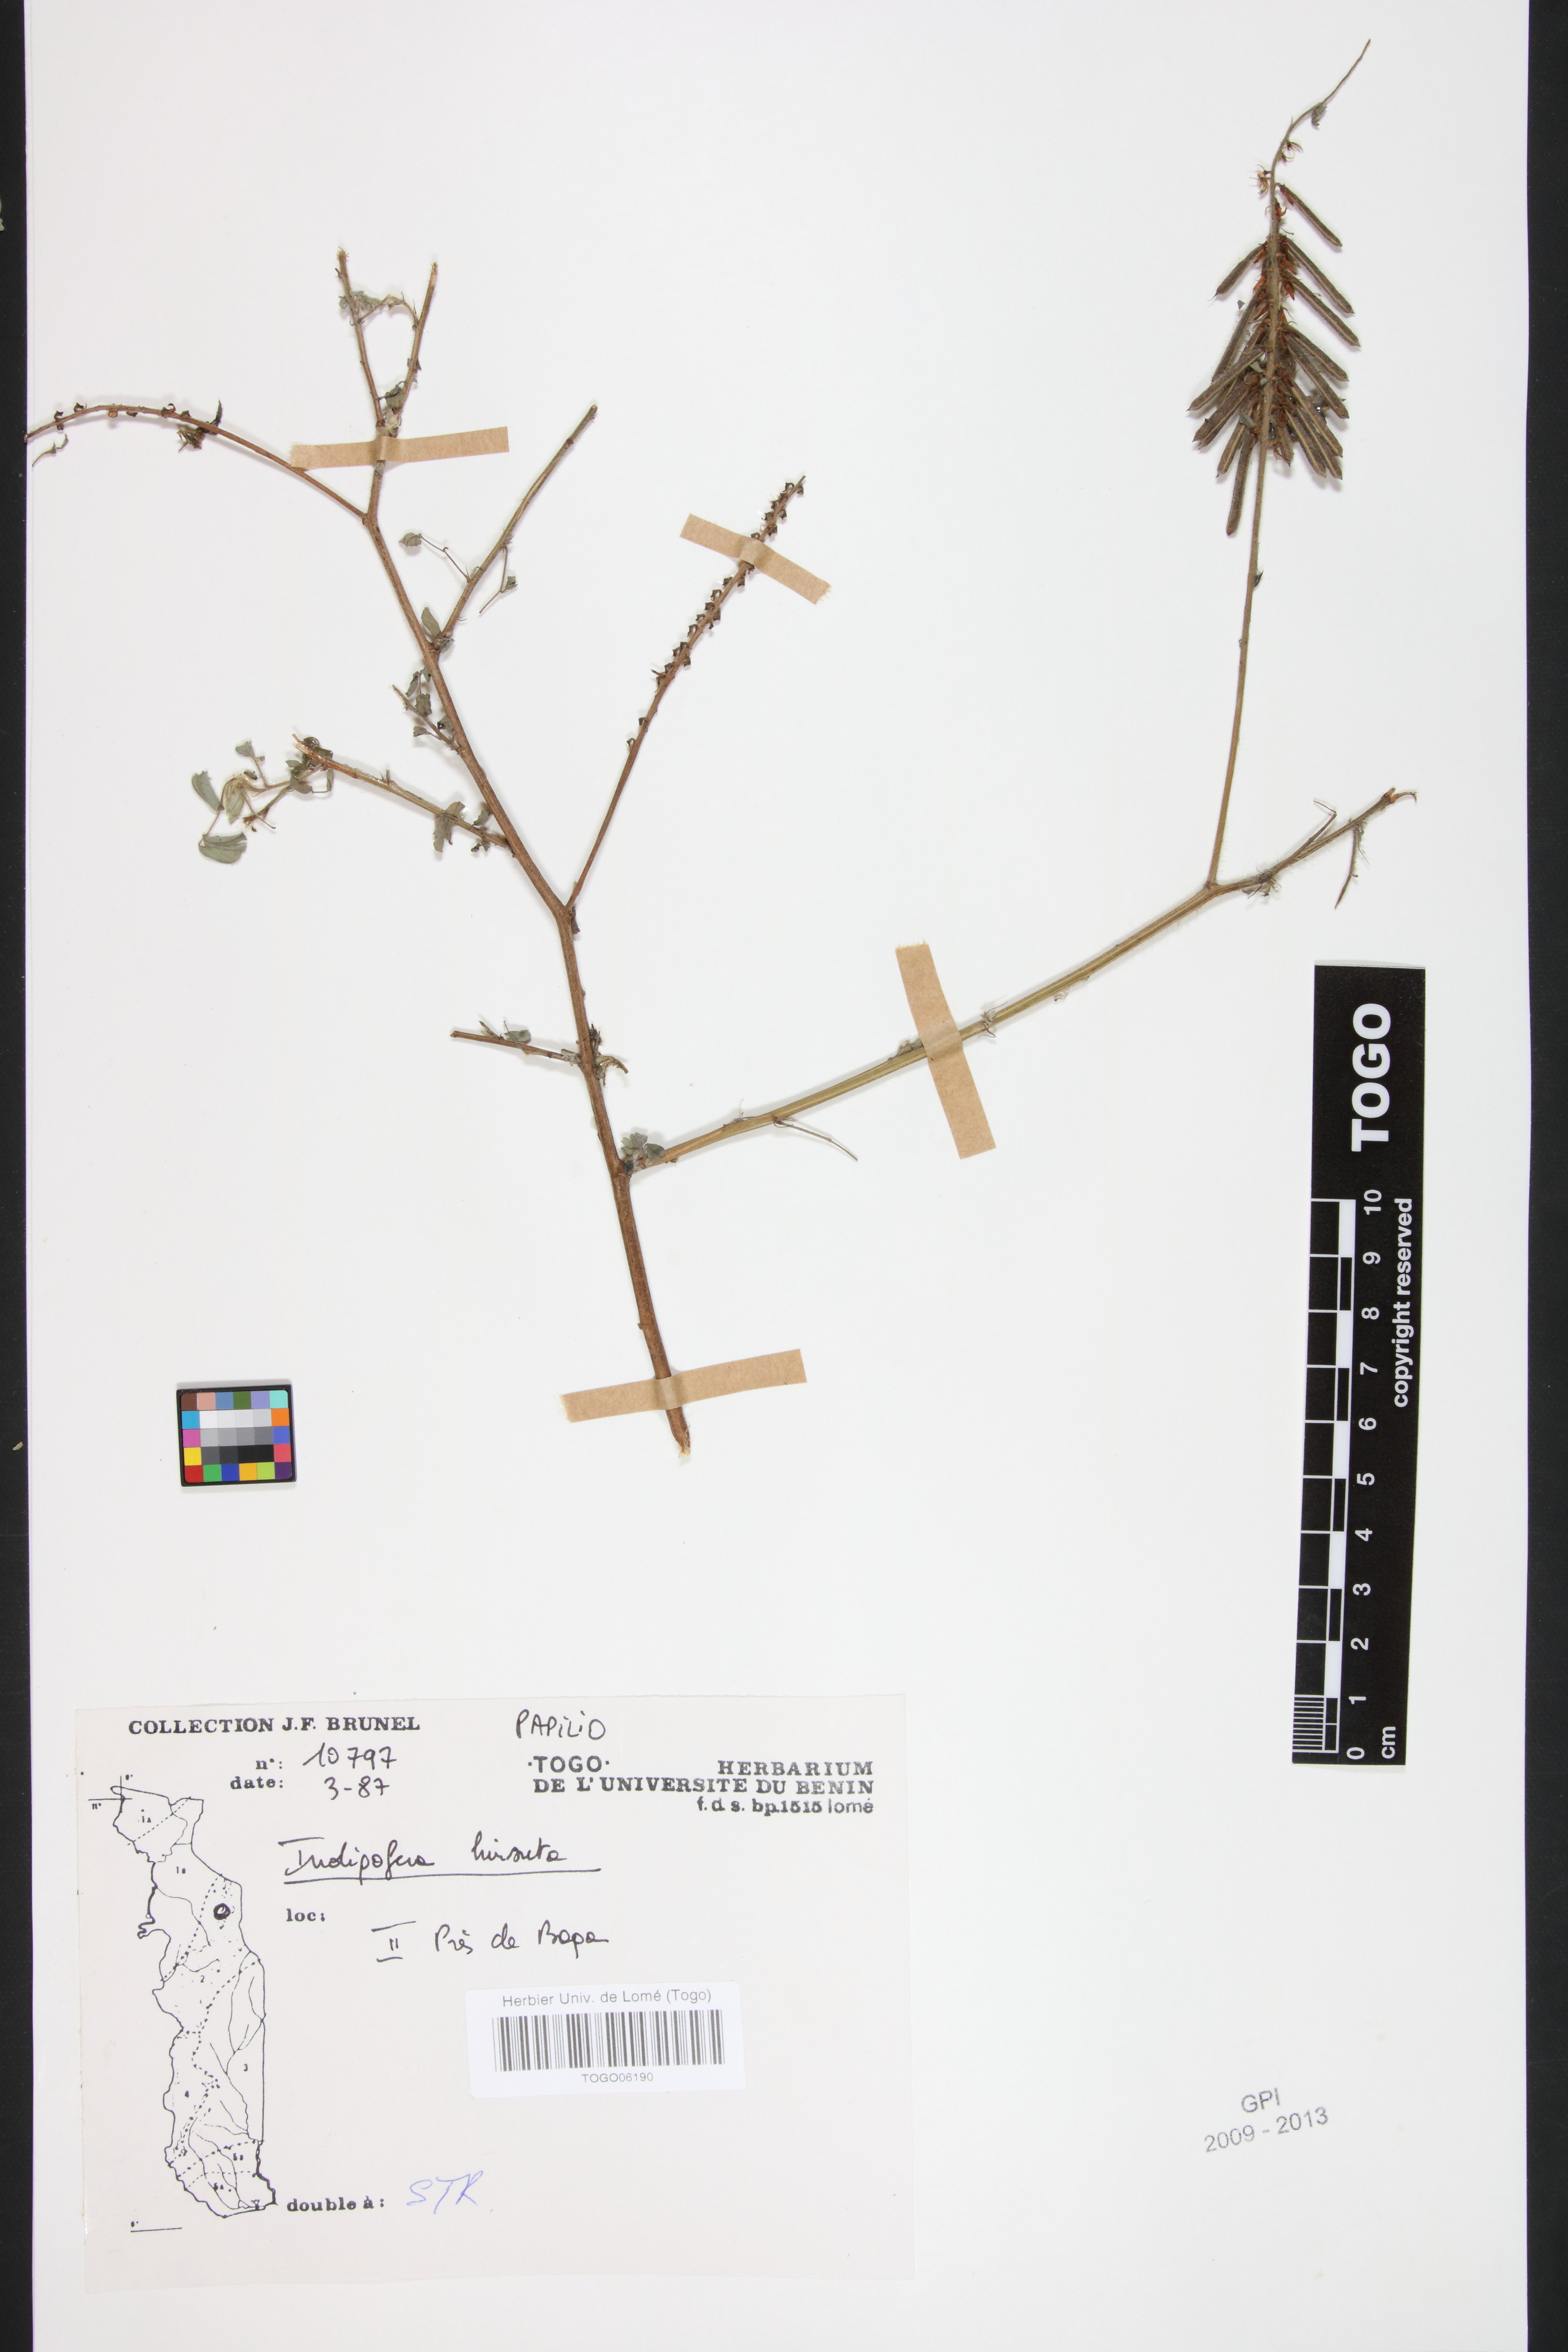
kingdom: Plantae
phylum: Tracheophyta
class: Magnoliopsida
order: Fabales
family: Fabaceae
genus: Indigofera
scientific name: Indigofera hirsuta
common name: Hairy indigo
